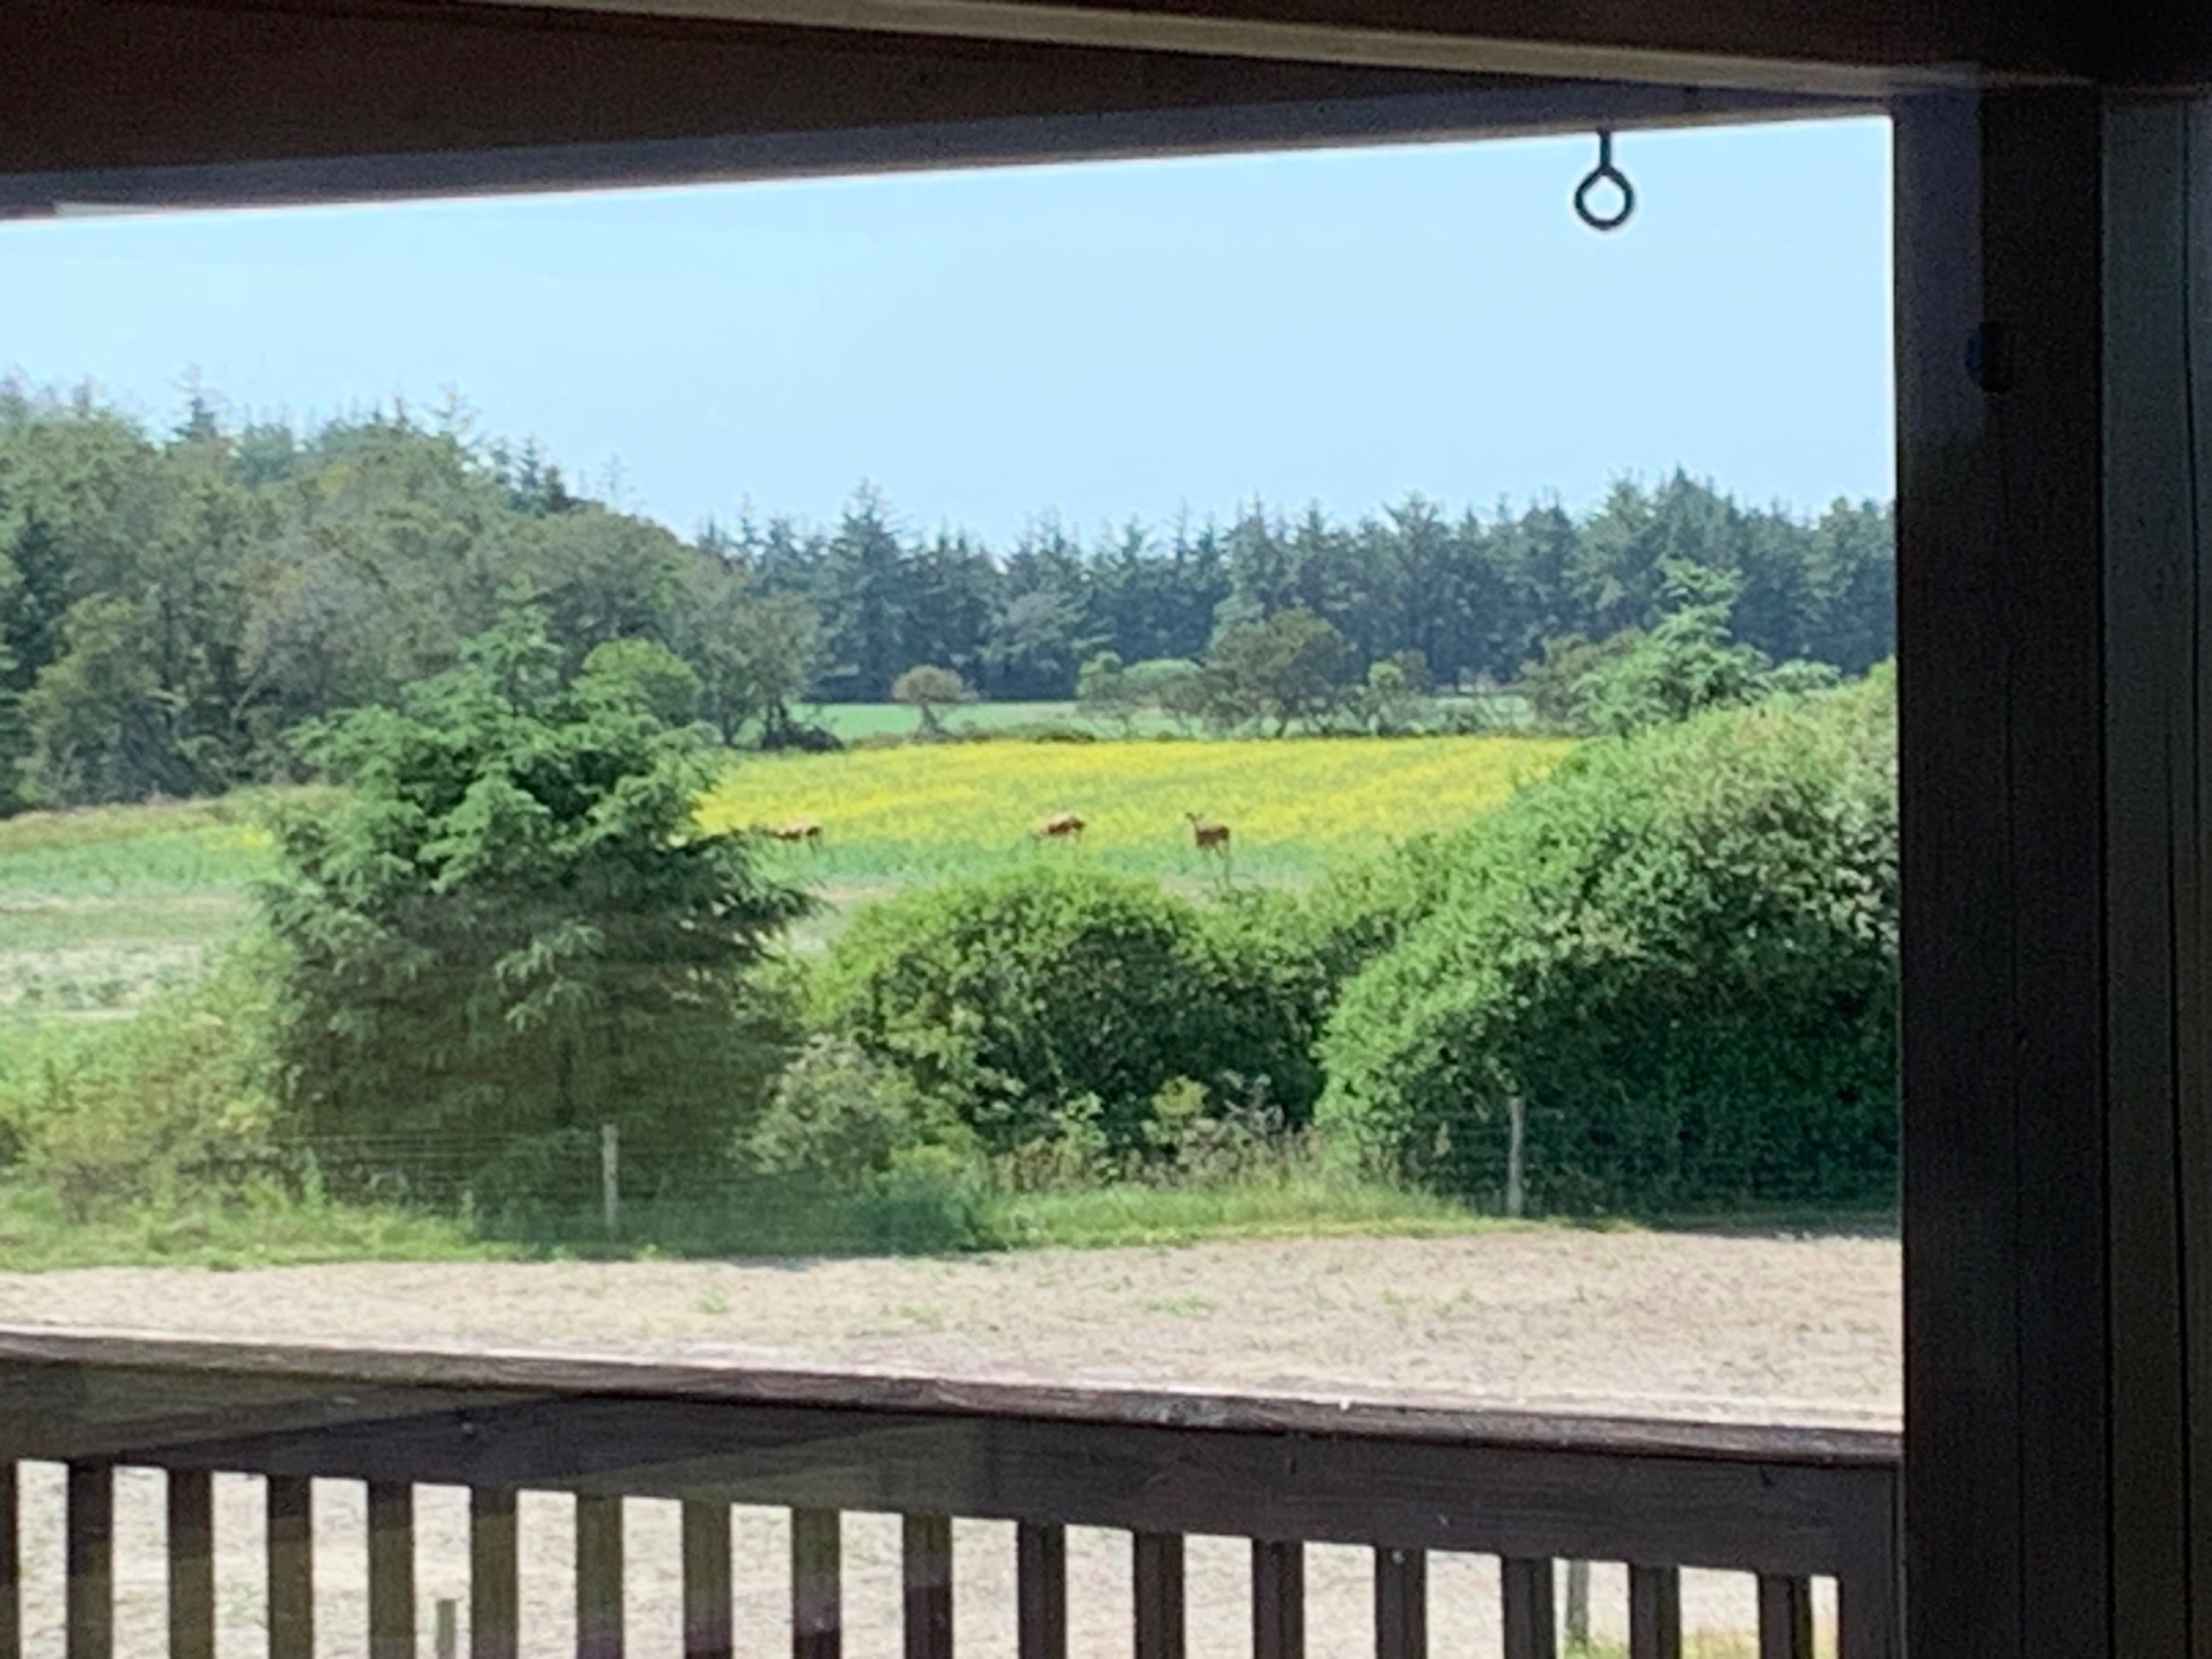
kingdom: Animalia
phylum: Chordata
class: Mammalia
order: Artiodactyla
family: Cervidae
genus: Cervus
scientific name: Cervus elaphus
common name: Krondyr
